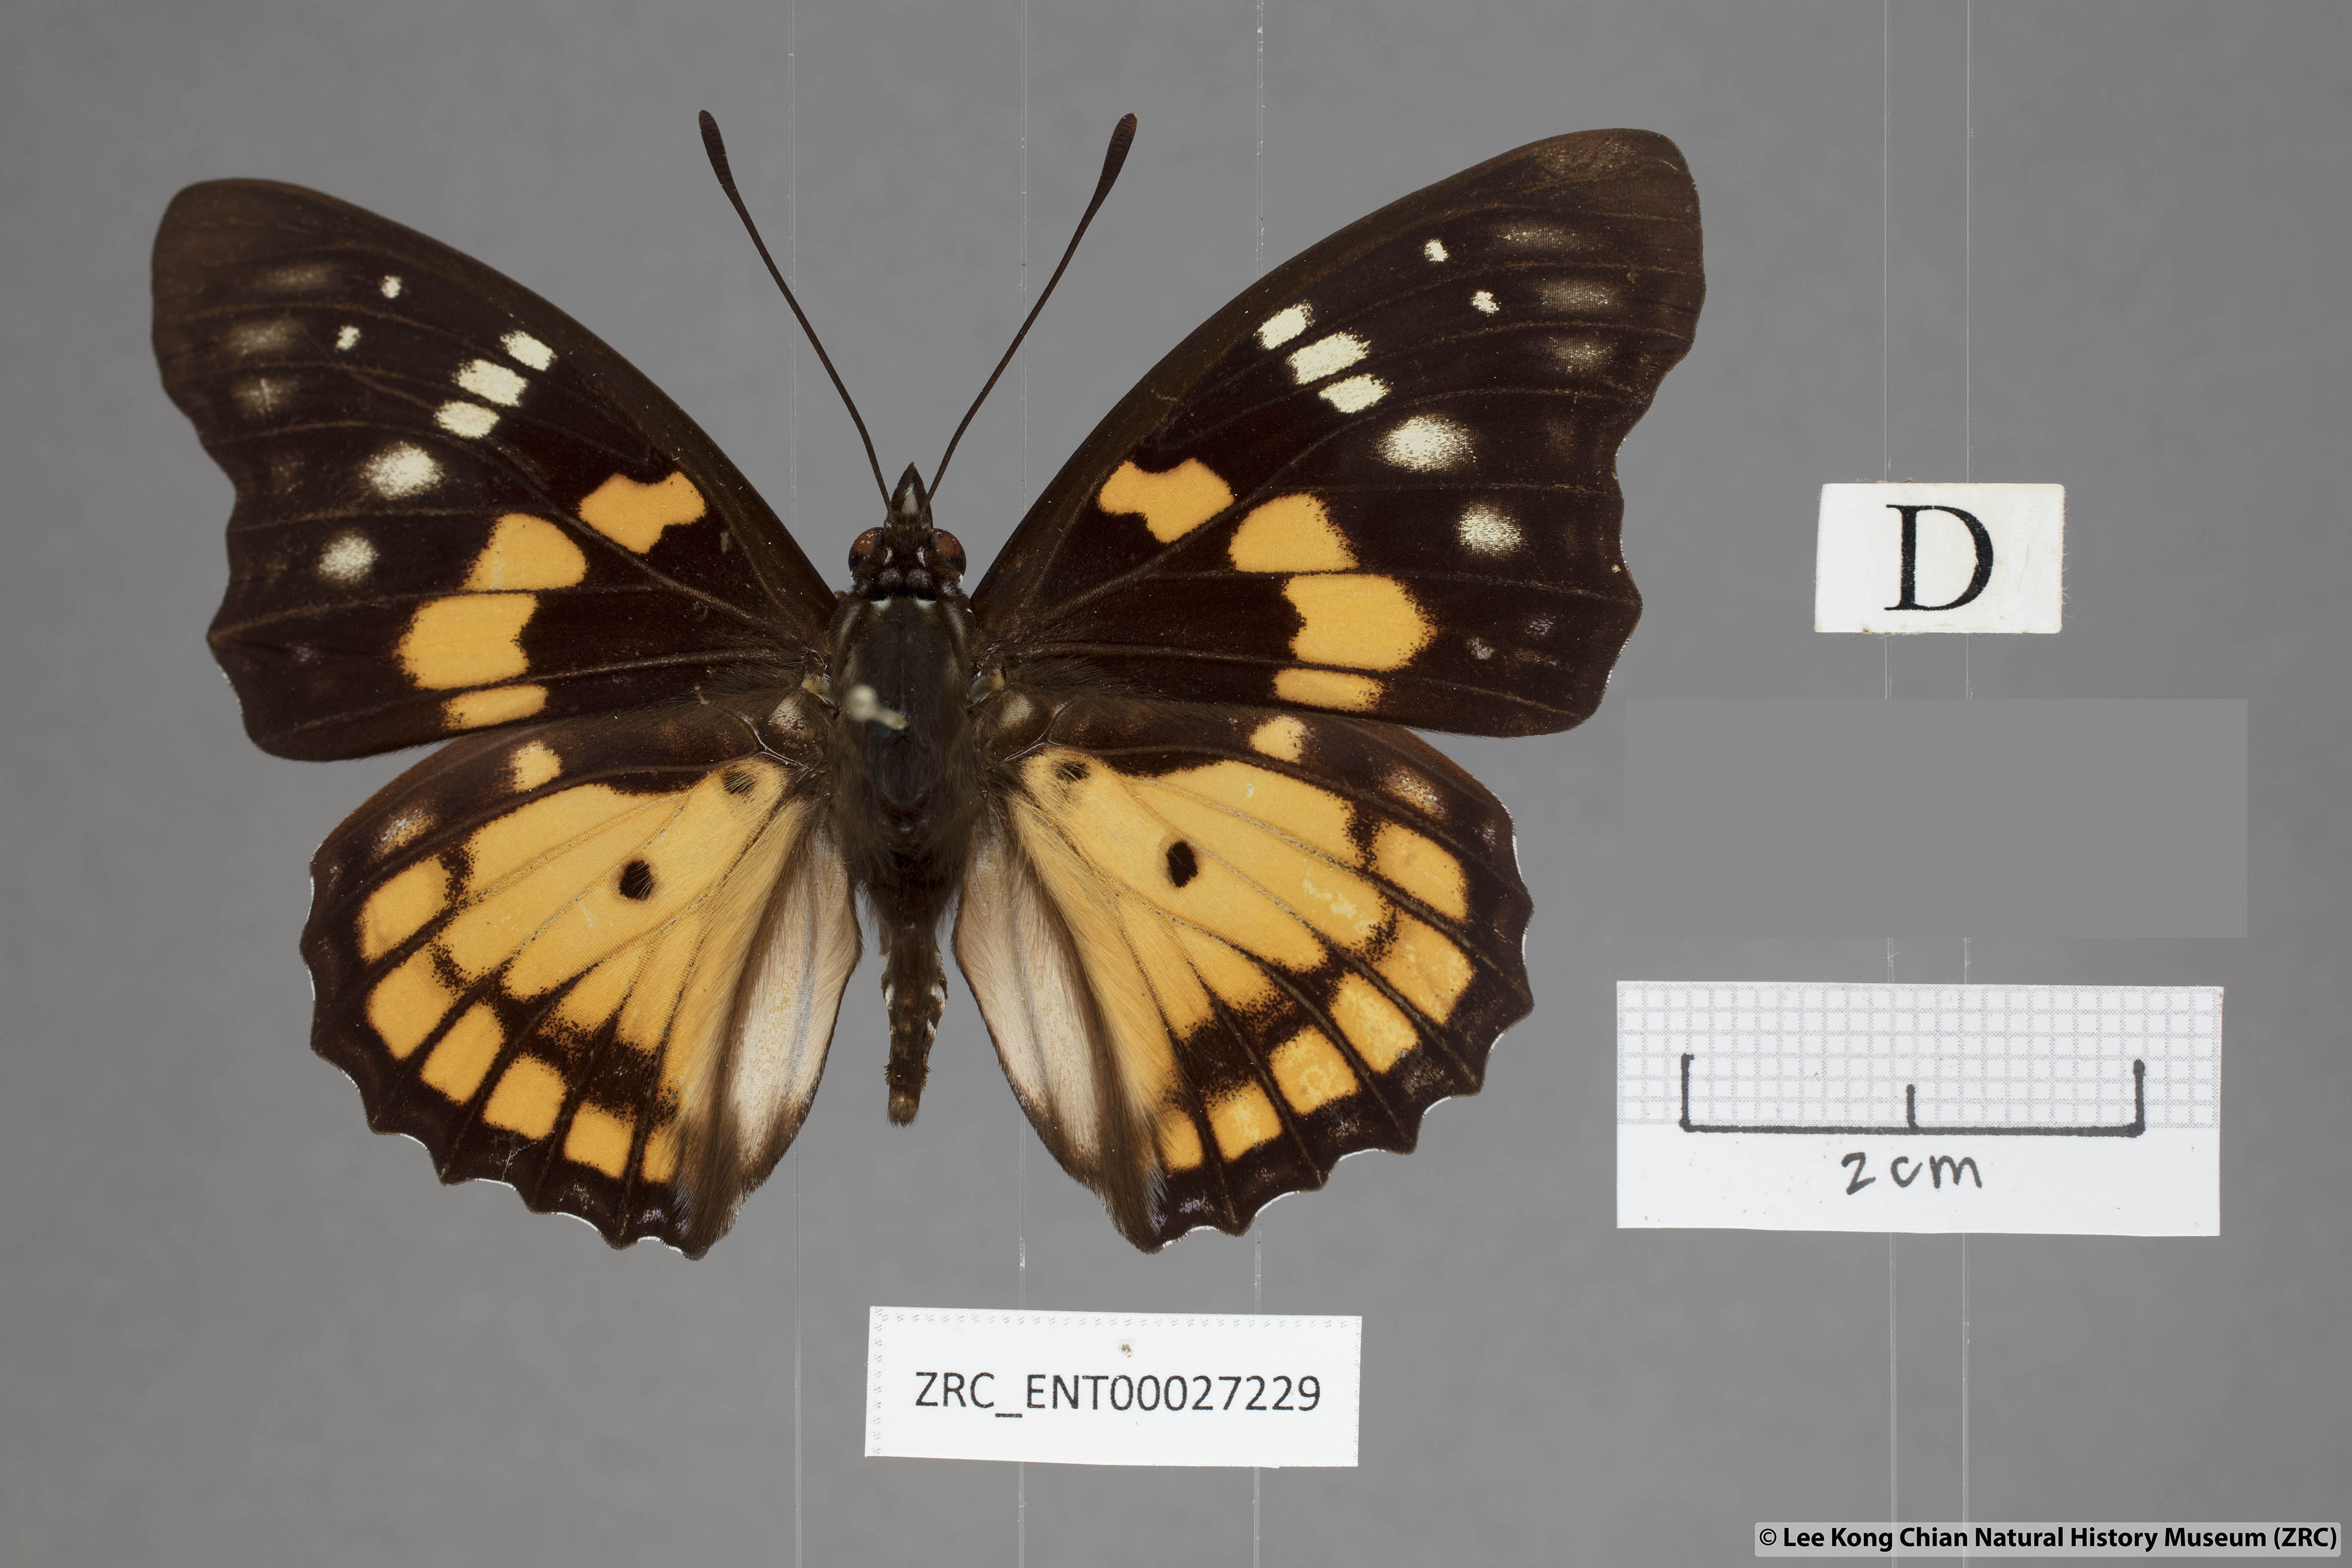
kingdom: Animalia
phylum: Arthropoda
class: Insecta
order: Lepidoptera
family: Nymphalidae
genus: Sephisa
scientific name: Sephisa chandra
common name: Eastern courtier
